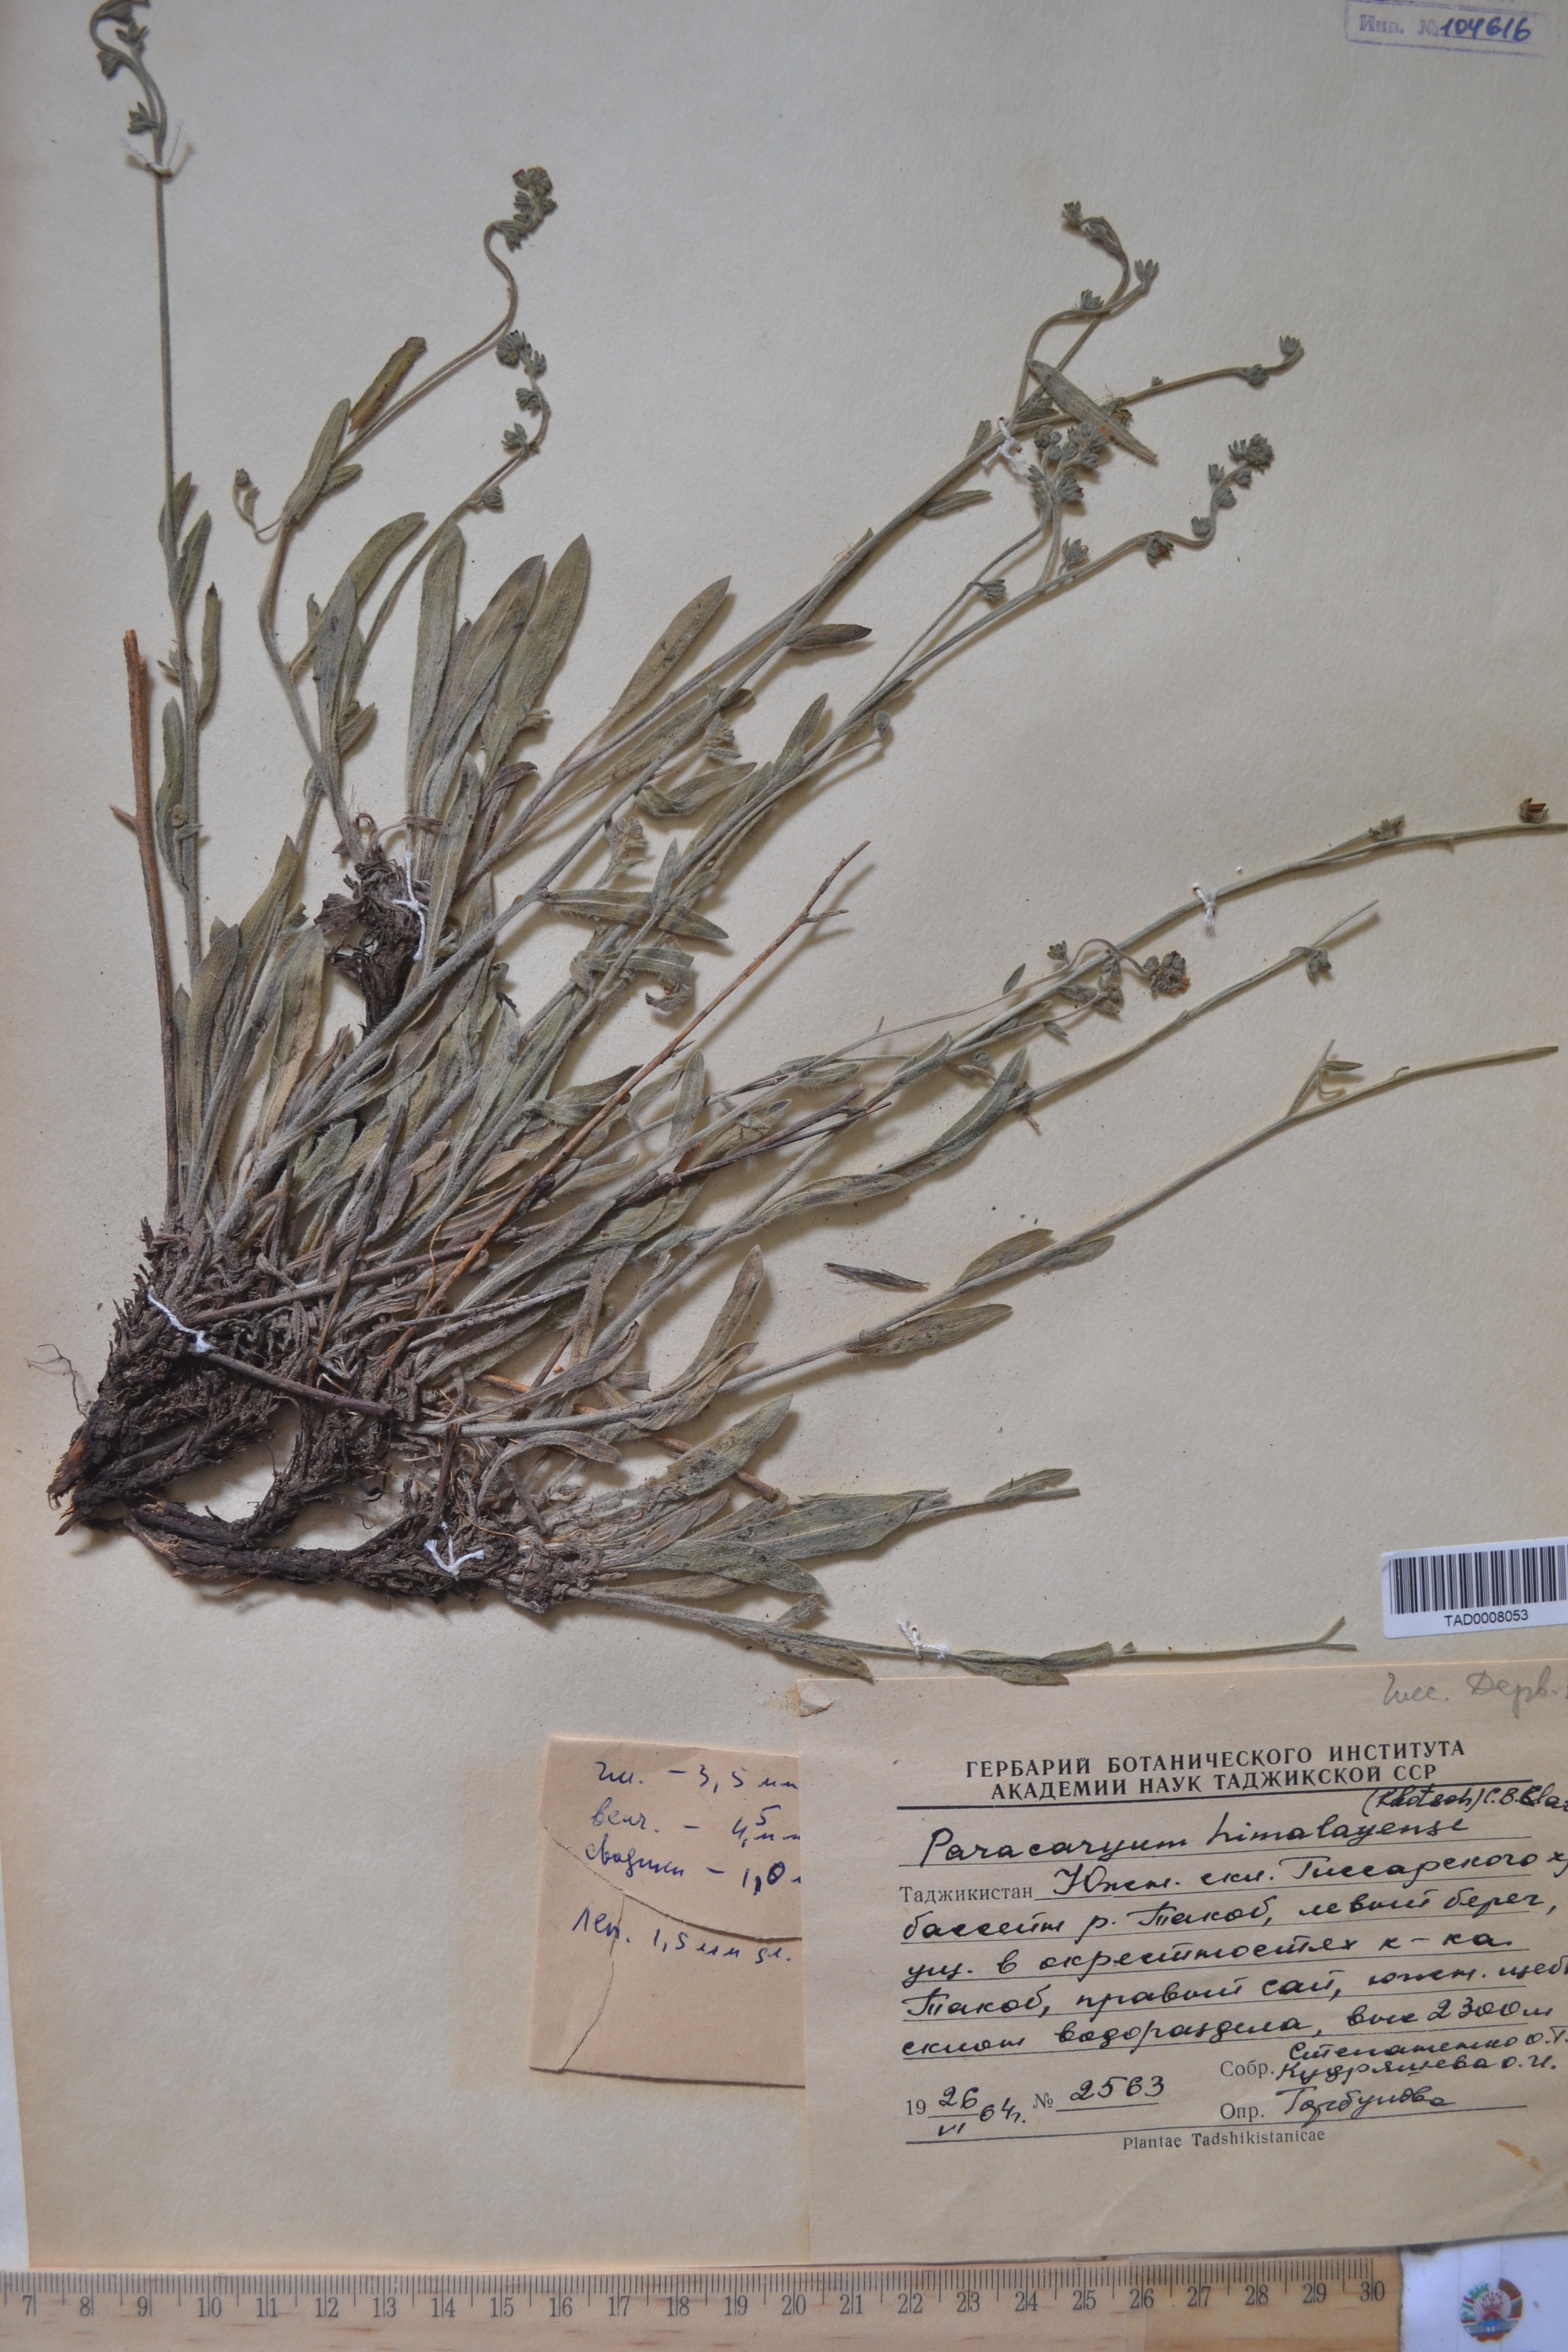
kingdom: Plantae
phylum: Tracheophyta
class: Magnoliopsida
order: Boraginales
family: Boraginaceae
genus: Paracaryum
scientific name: Paracaryum himalayense
